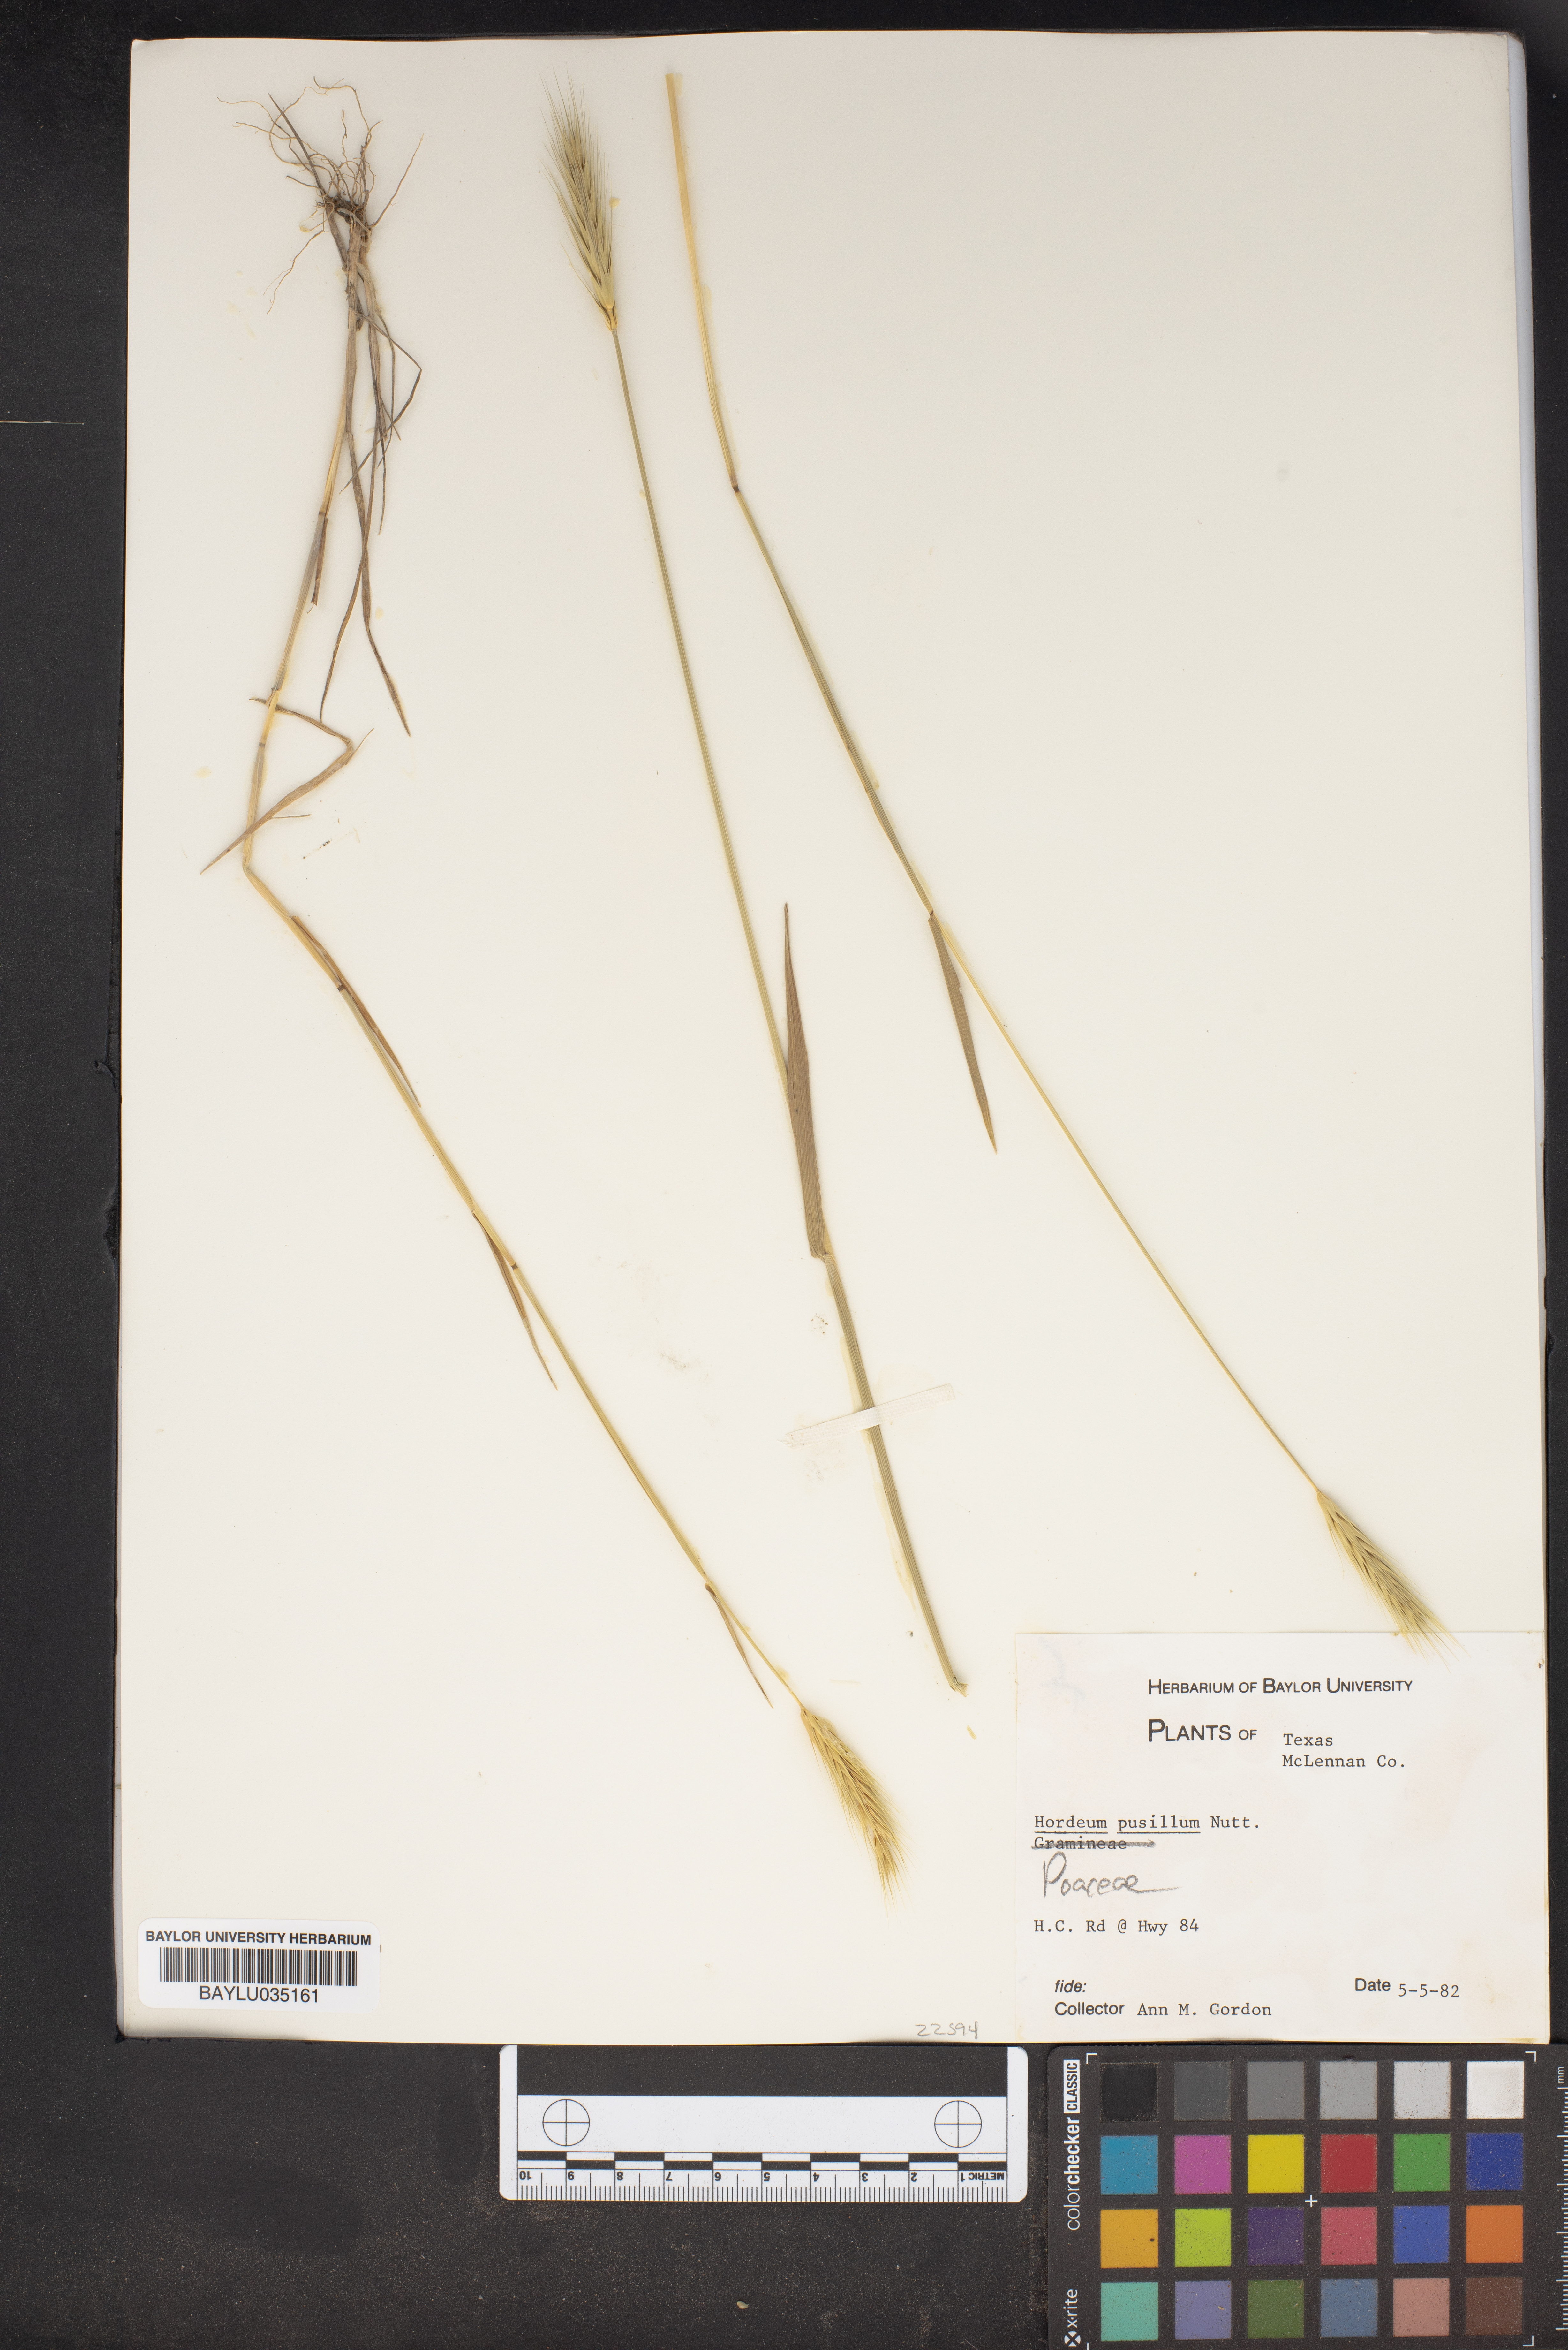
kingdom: Plantae
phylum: Tracheophyta
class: Liliopsida
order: Poales
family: Poaceae
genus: Hordeum
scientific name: Hordeum pusillum
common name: Little barley
